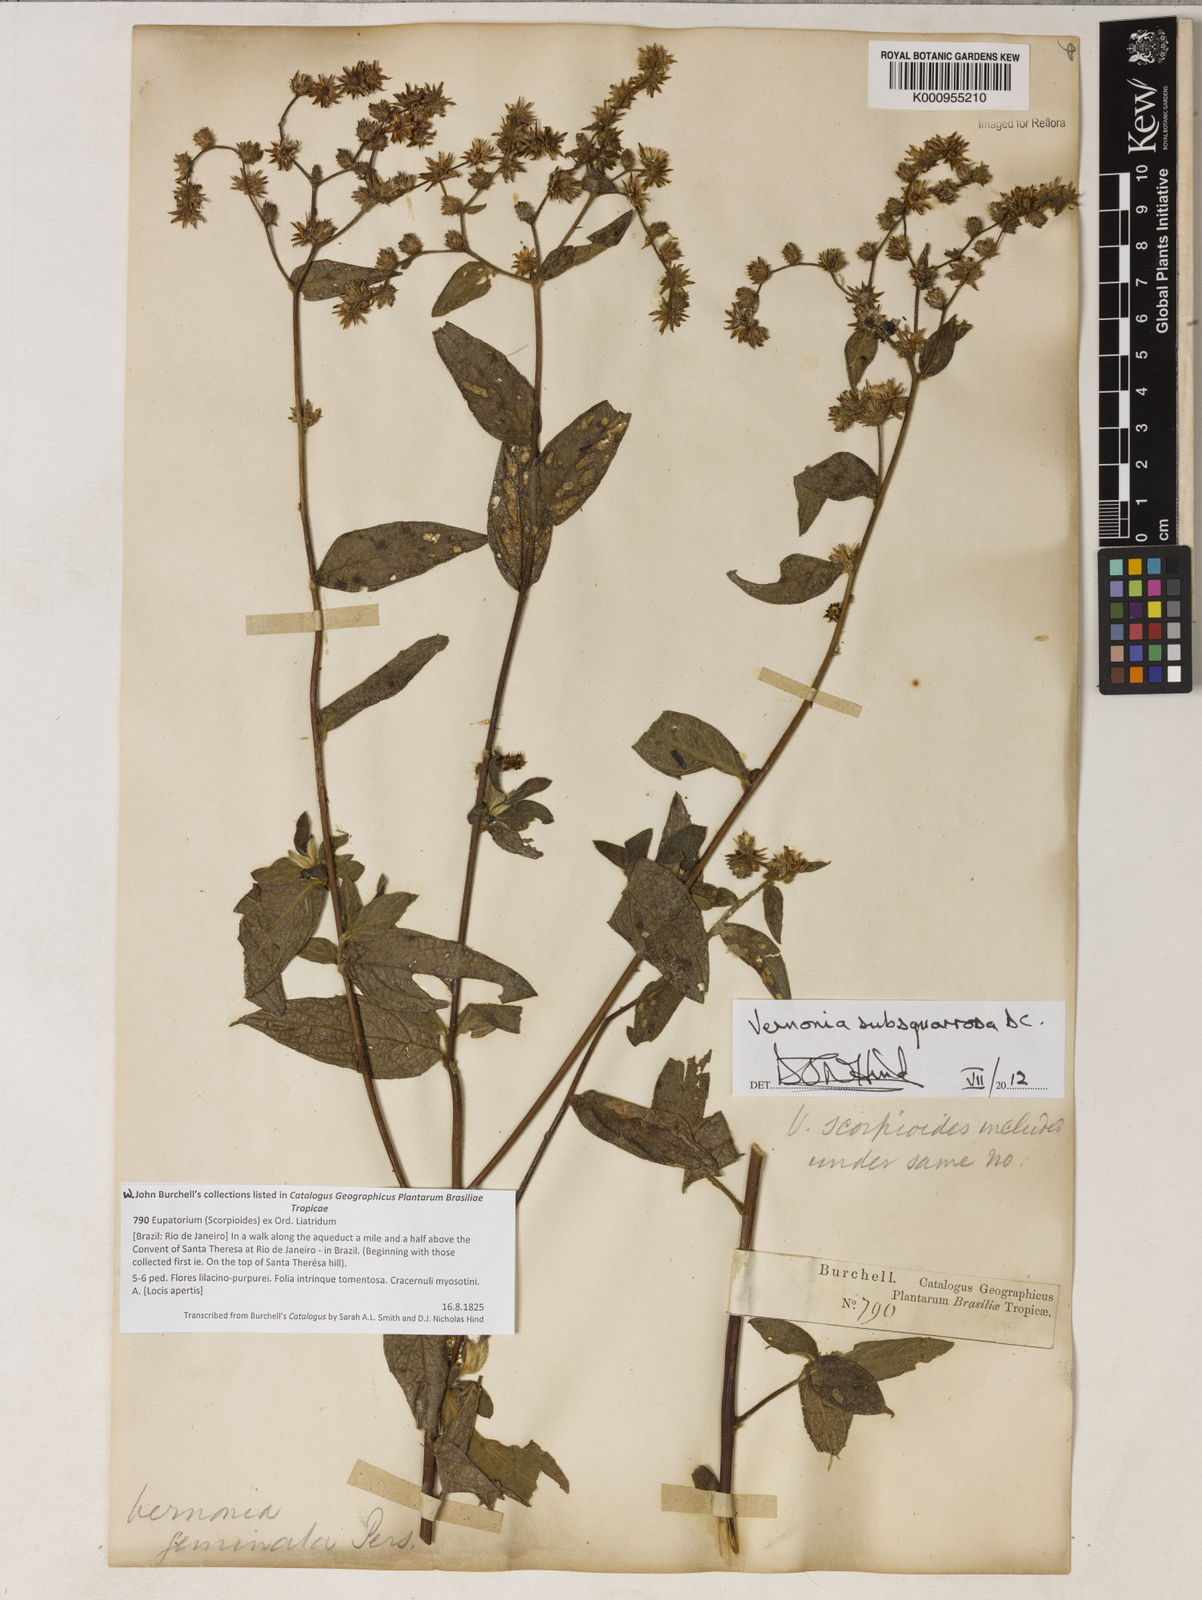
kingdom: Plantae
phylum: Tracheophyta
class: Magnoliopsida
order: Asterales
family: Asteraceae
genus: Lepidaploa
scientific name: Lepidaploa subsquarrosa
